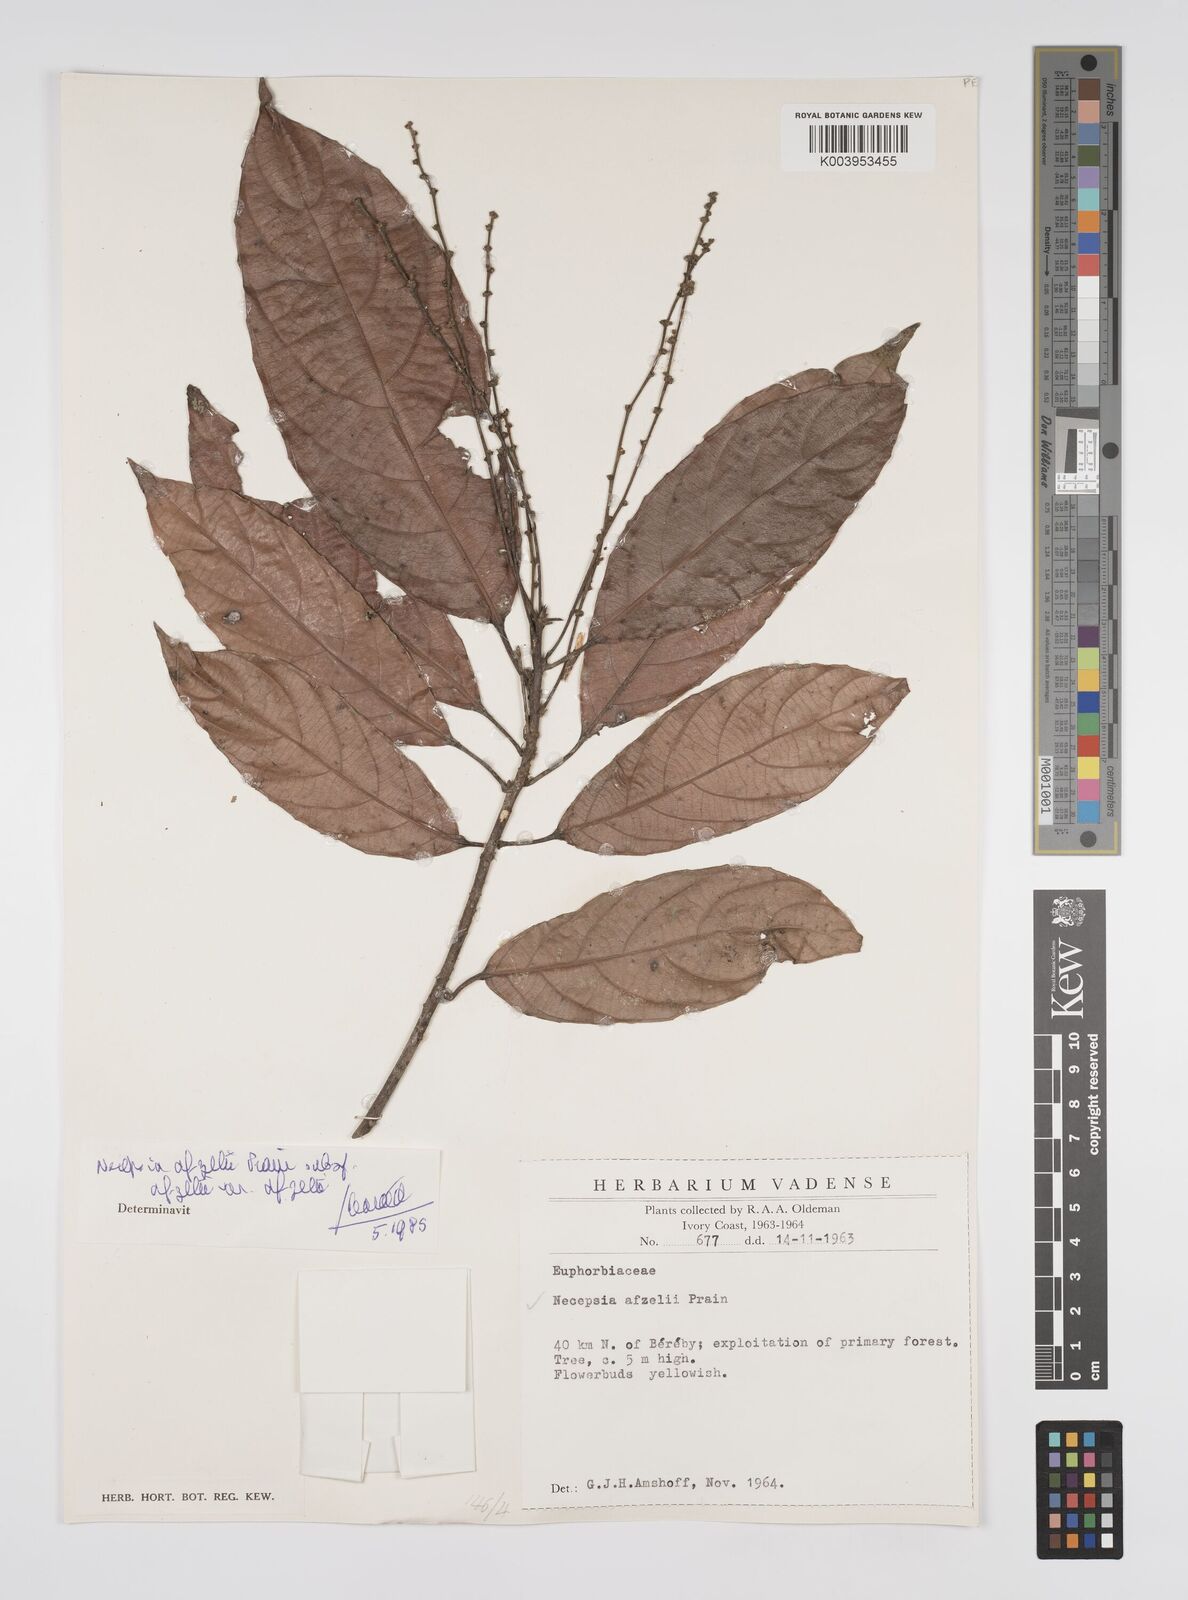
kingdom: Plantae
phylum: Tracheophyta
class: Magnoliopsida
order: Malpighiales
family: Euphorbiaceae
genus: Necepsia
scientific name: Necepsia afzelii
